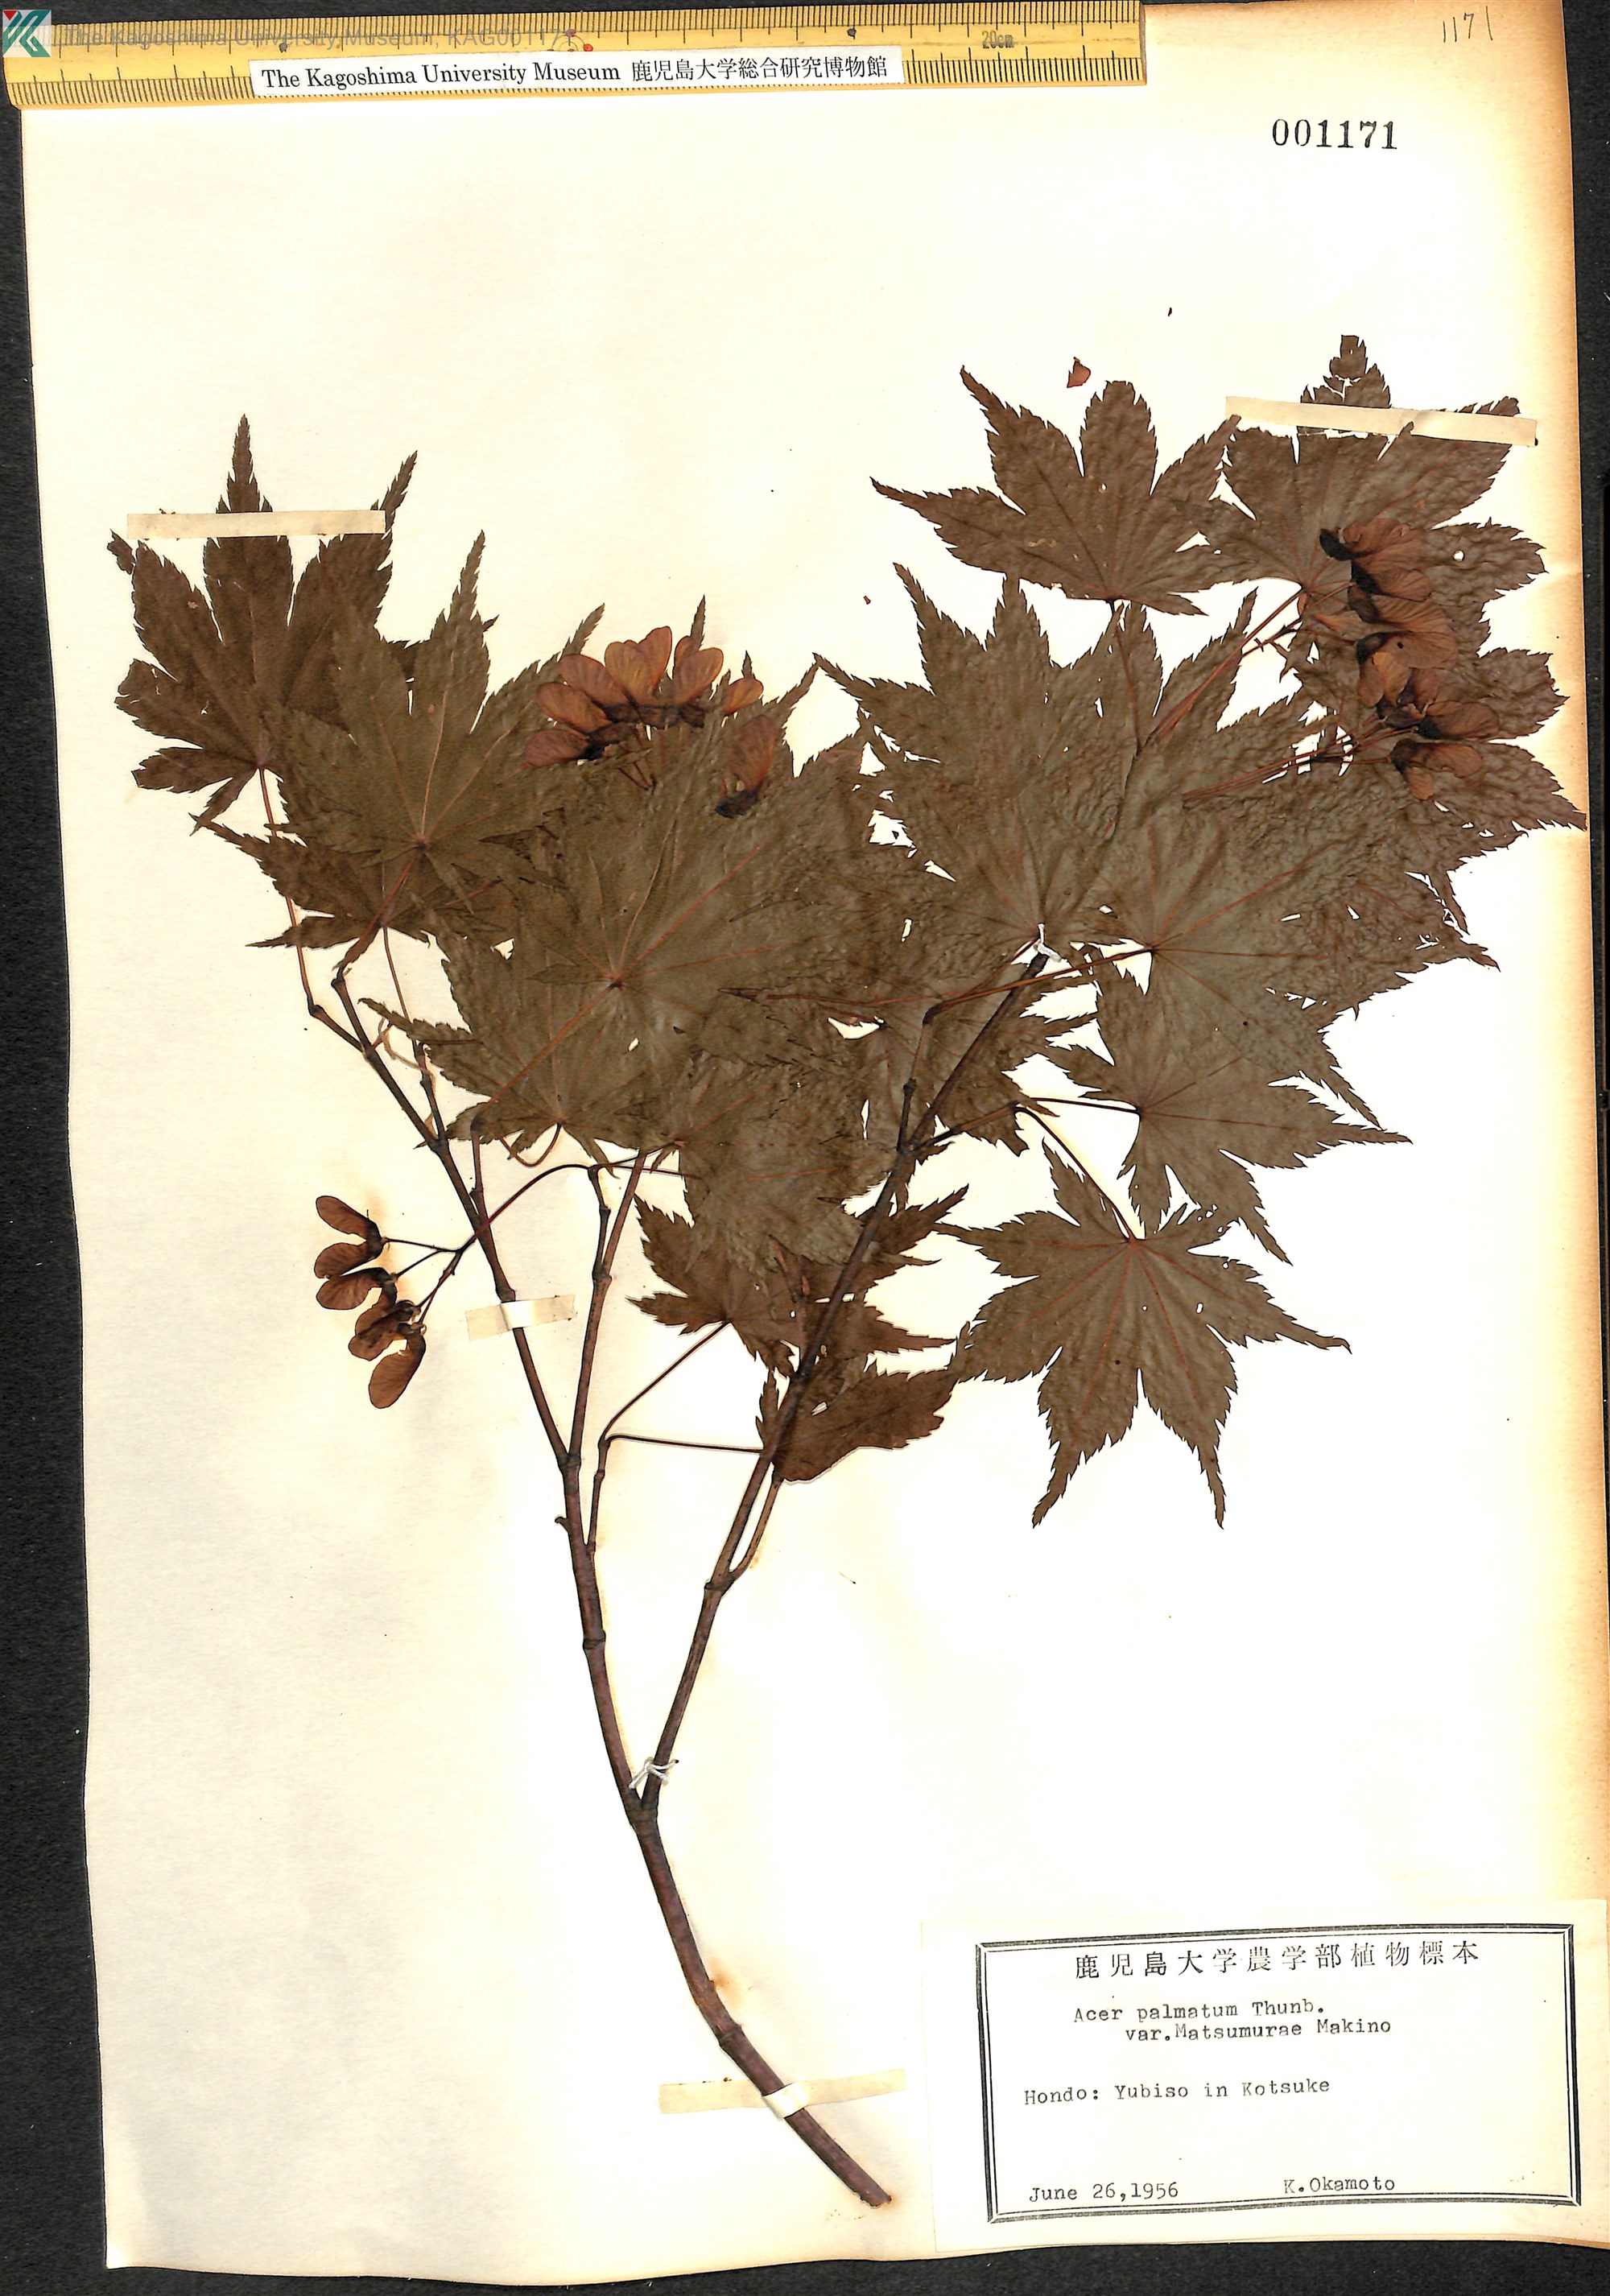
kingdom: Plantae
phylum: Tracheophyta
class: Magnoliopsida
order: Sapindales
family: Sapindaceae
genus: Acer
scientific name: Acer palmatum
